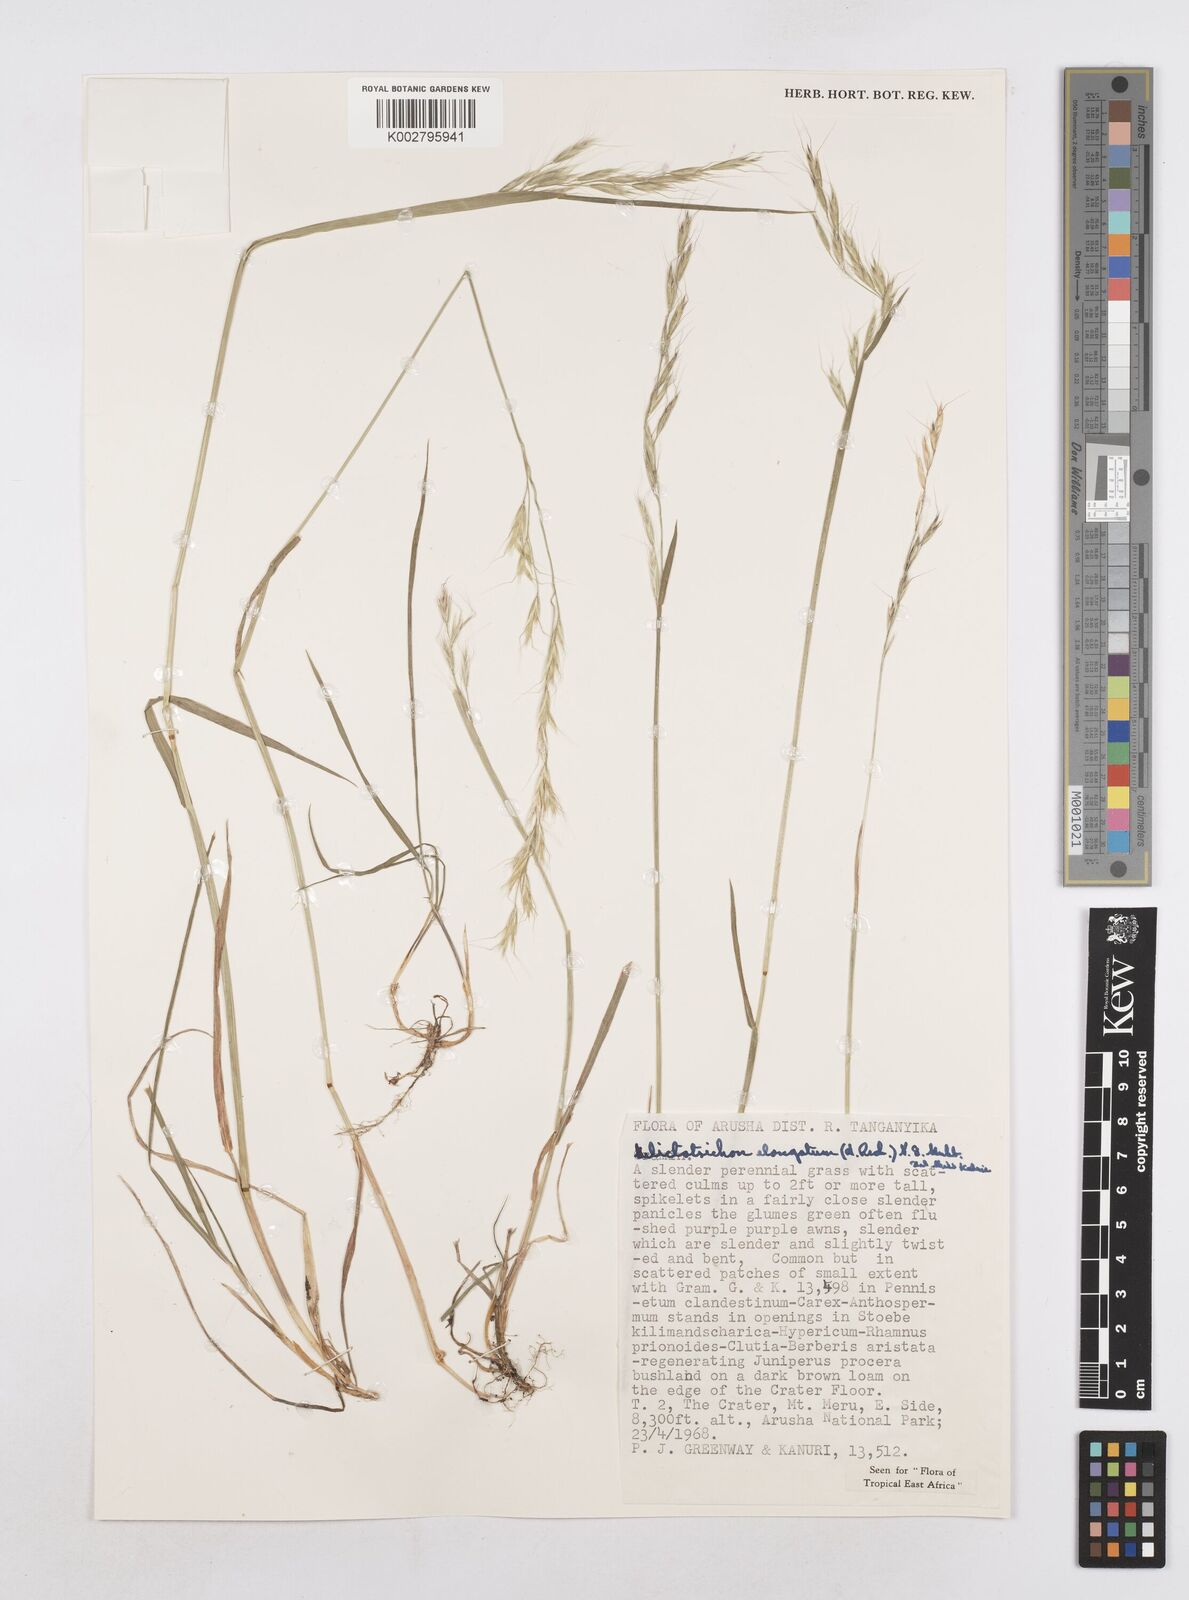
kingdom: Plantae
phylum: Tracheophyta
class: Liliopsida
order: Poales
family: Poaceae
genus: Trisetopsis
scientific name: Trisetopsis elongata
